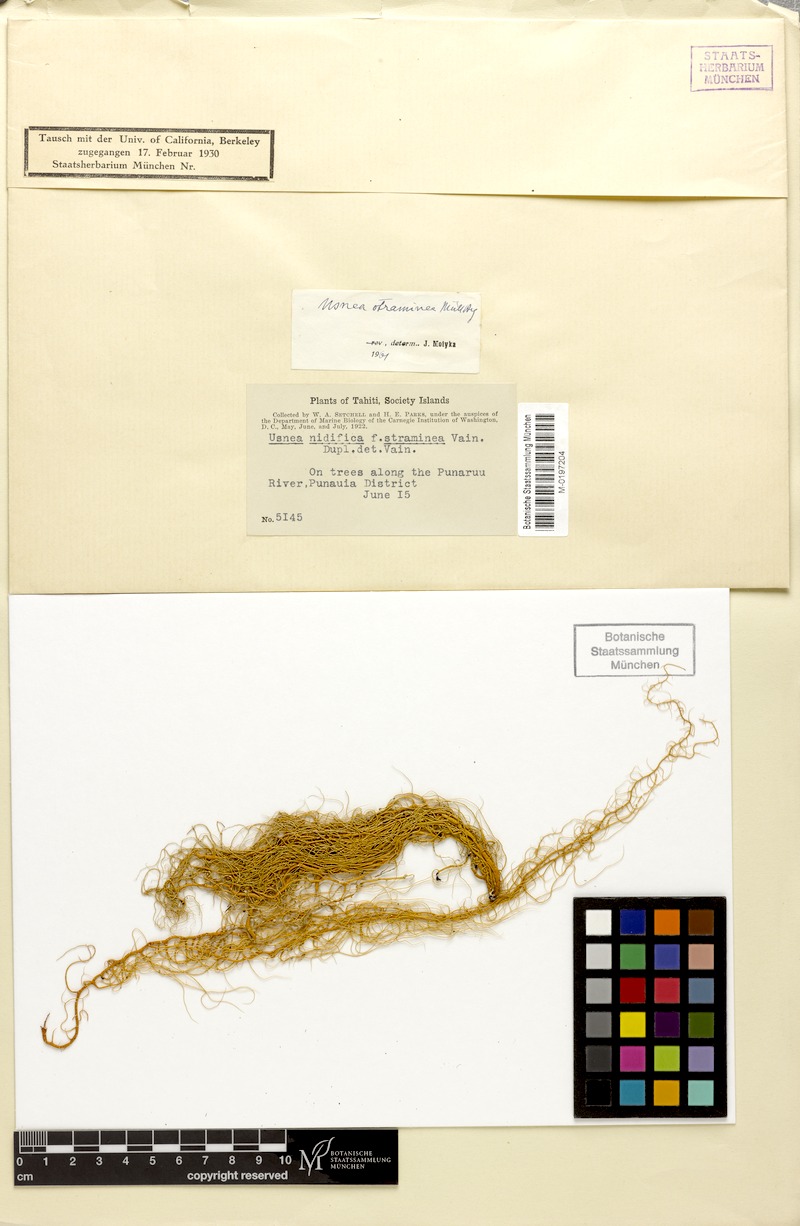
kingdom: Fungi
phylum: Ascomycota
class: Lecanoromycetes
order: Lecanorales
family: Parmeliaceae
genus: Usnea
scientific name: Usnea nidifica
